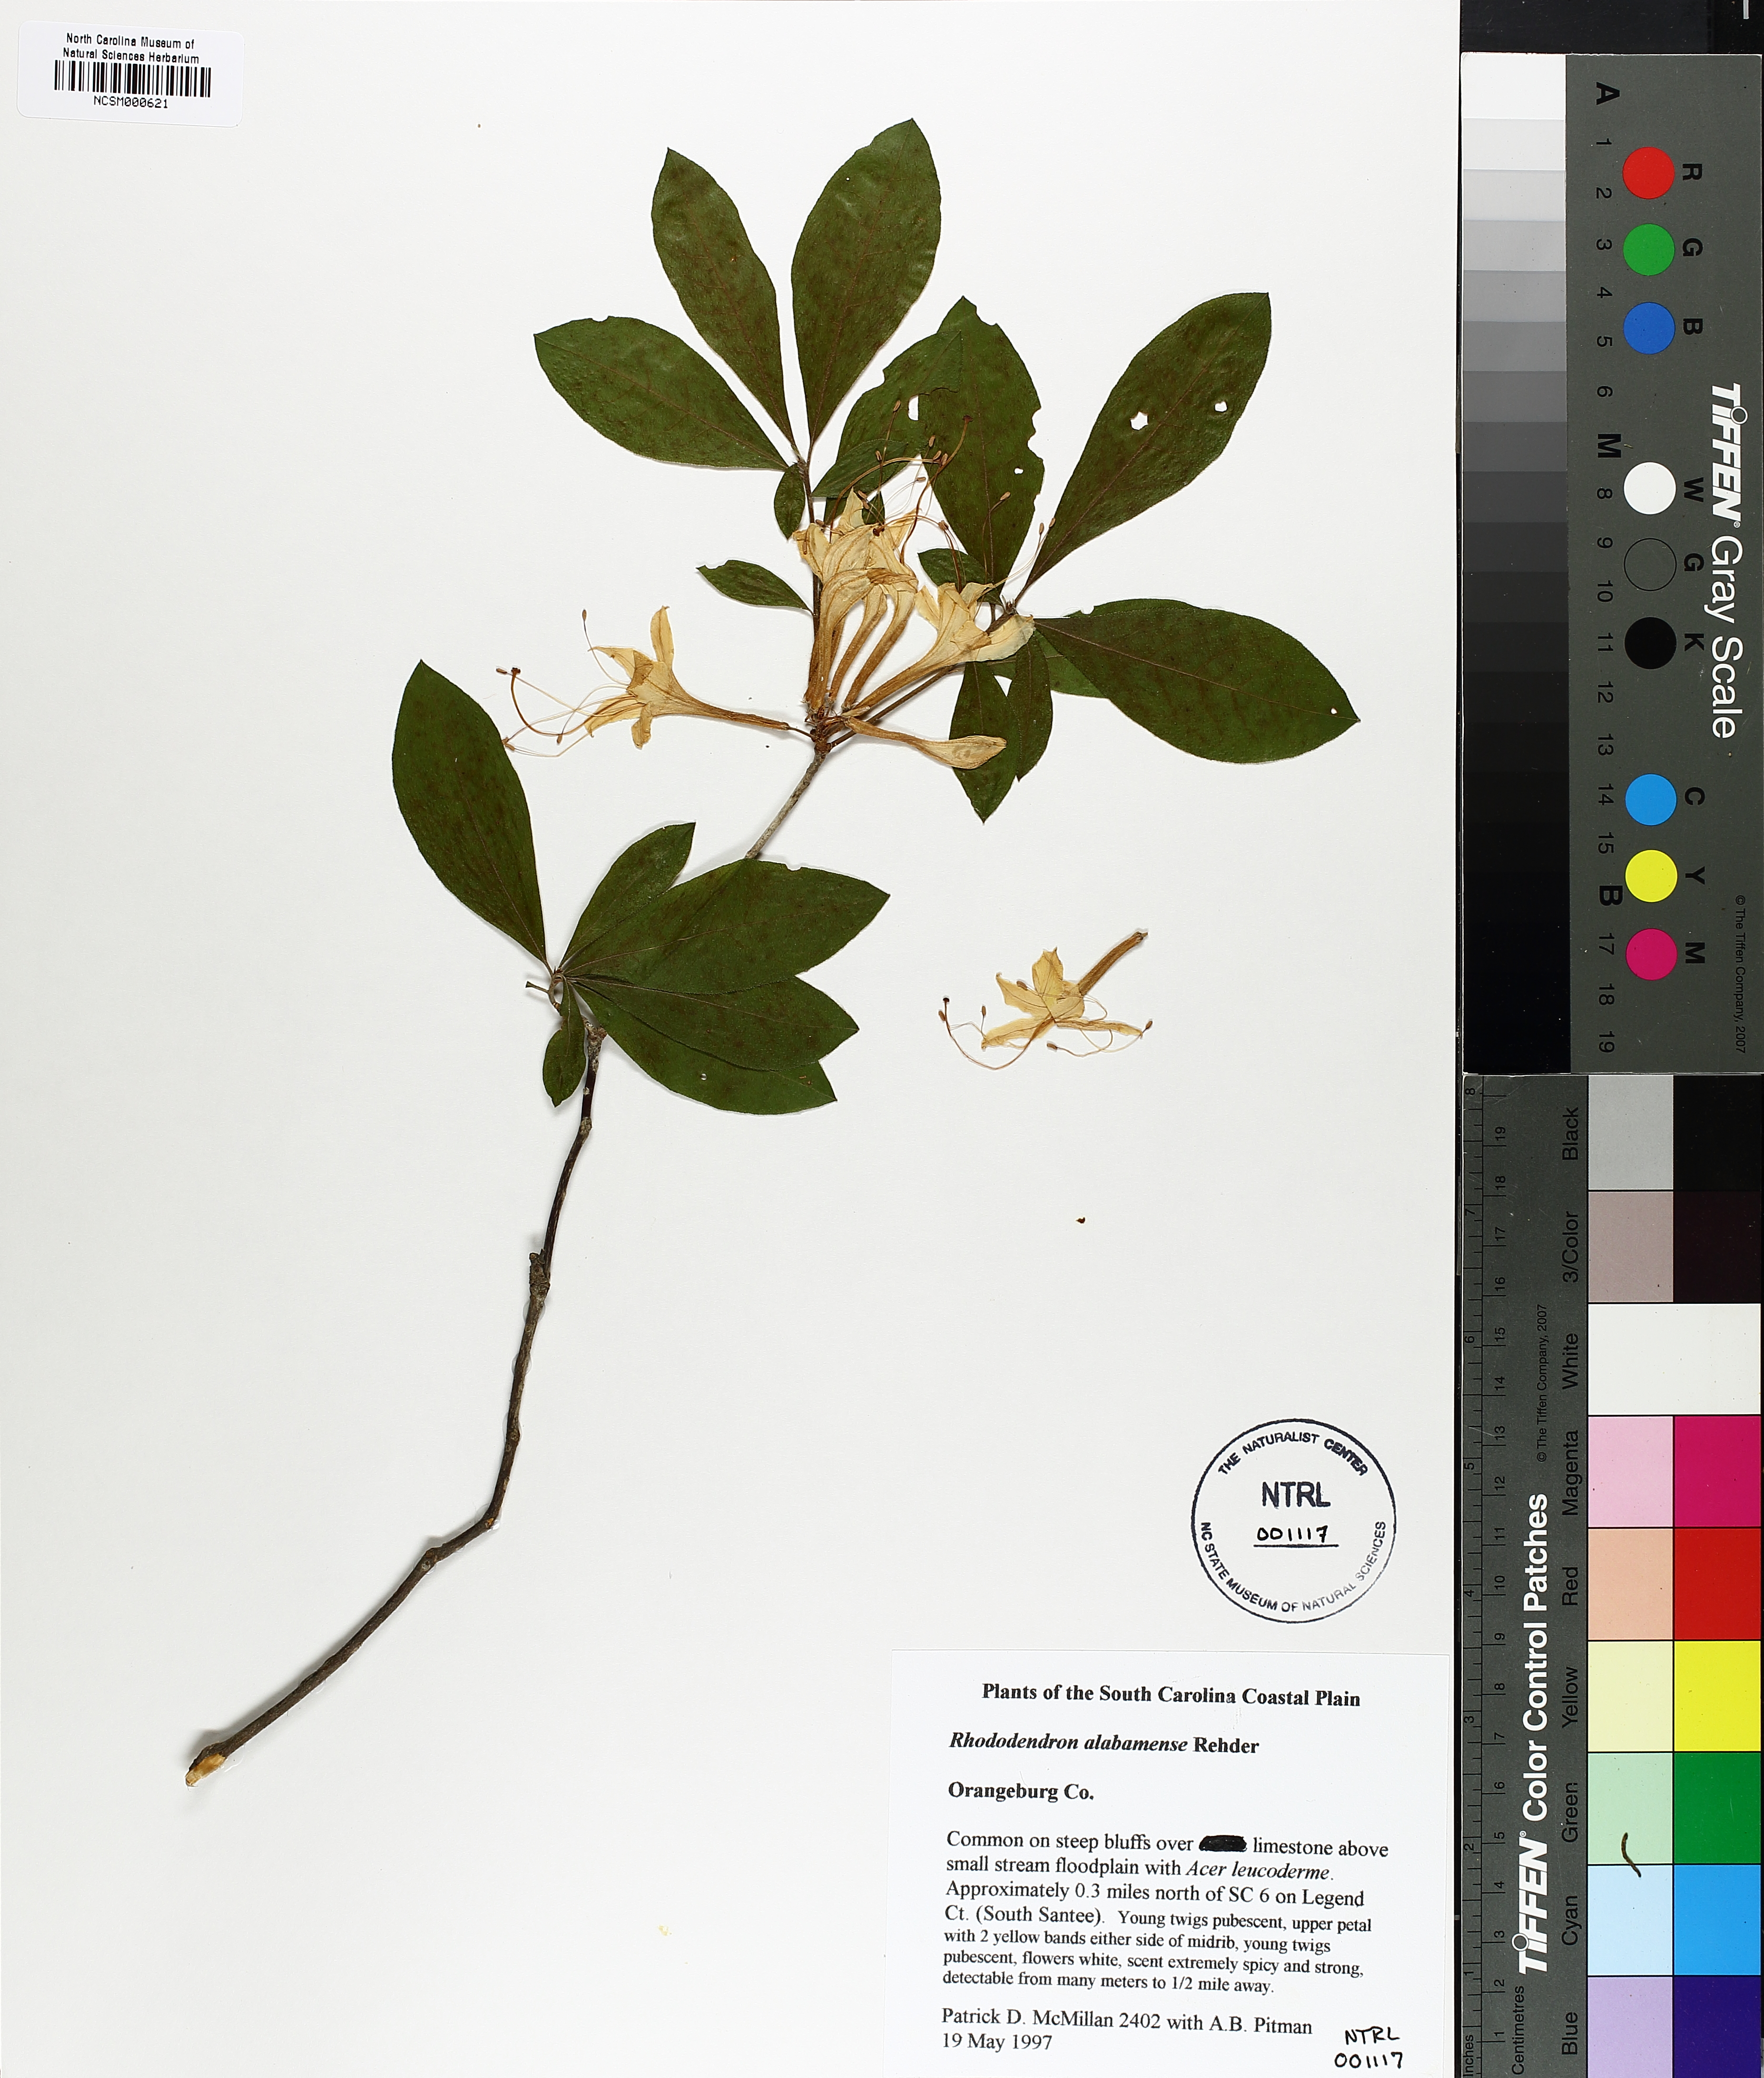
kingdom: Plantae
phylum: Tracheophyta
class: Magnoliopsida
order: Ericales
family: Ericaceae
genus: Rhododendron
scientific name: Rhododendron alabamense
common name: Alabama azalea
